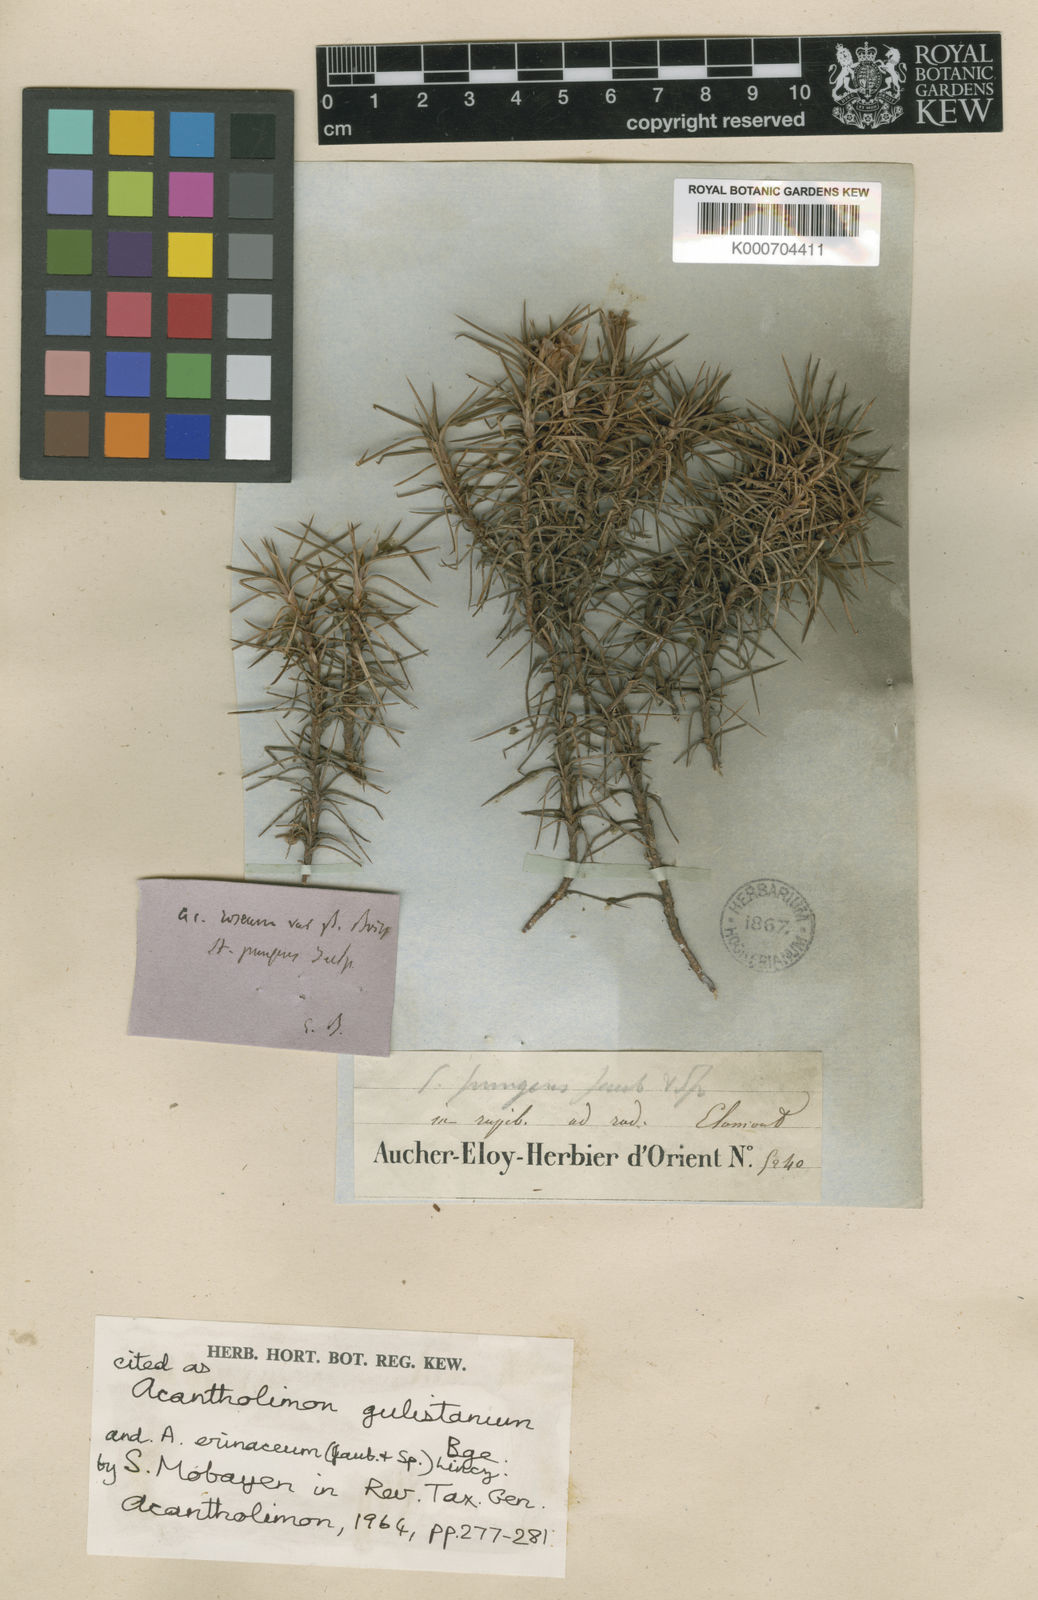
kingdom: Plantae
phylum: Tracheophyta
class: Magnoliopsida
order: Caryophyllales
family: Plumbaginaceae
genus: Acantholimon
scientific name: Acantholimon erinaceum
